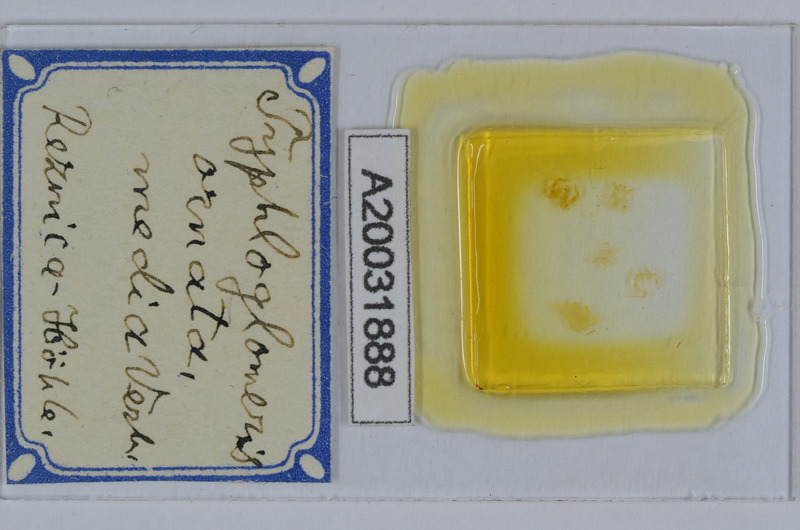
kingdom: Animalia
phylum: Arthropoda
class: Diplopoda
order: Glomerida
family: Glomeridellidae
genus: Typhloglomeris
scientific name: Typhloglomeris
